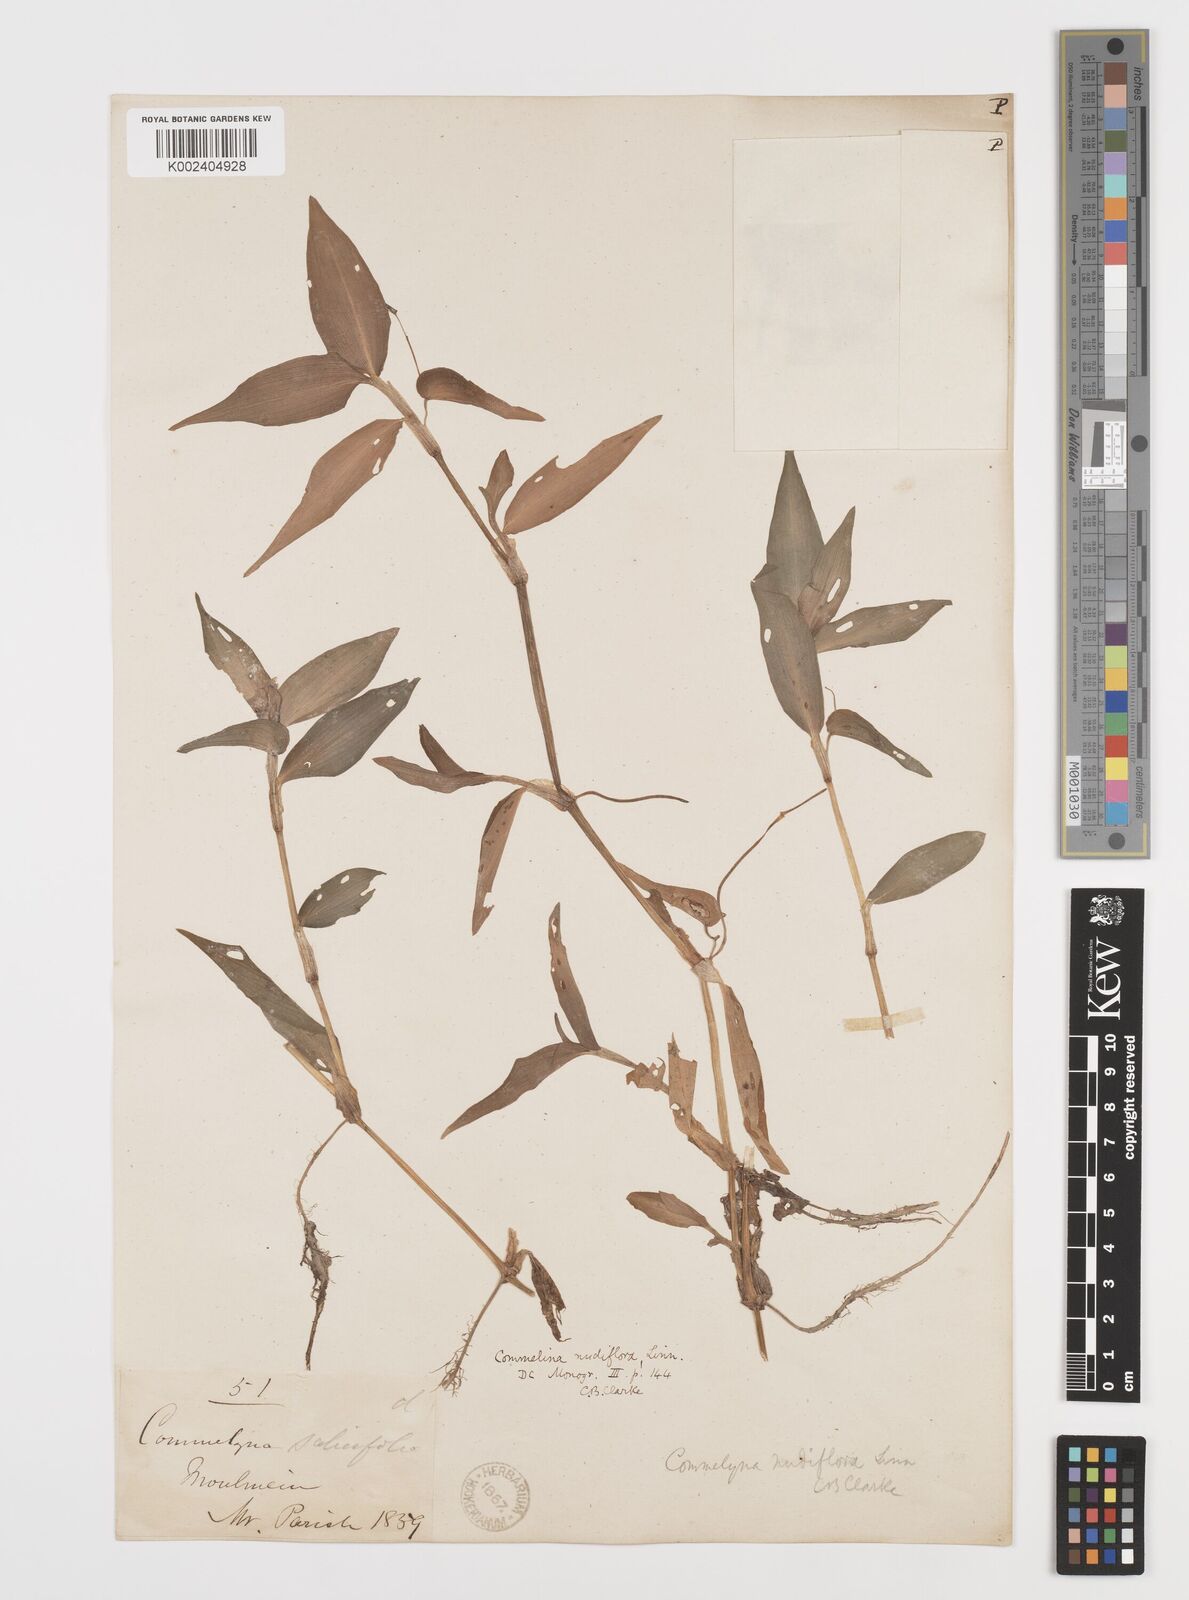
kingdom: Plantae
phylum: Tracheophyta
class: Liliopsida
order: Commelinales
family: Commelinaceae
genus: Murdannia
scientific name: Murdannia nudiflora
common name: Nakedstem dewflower
